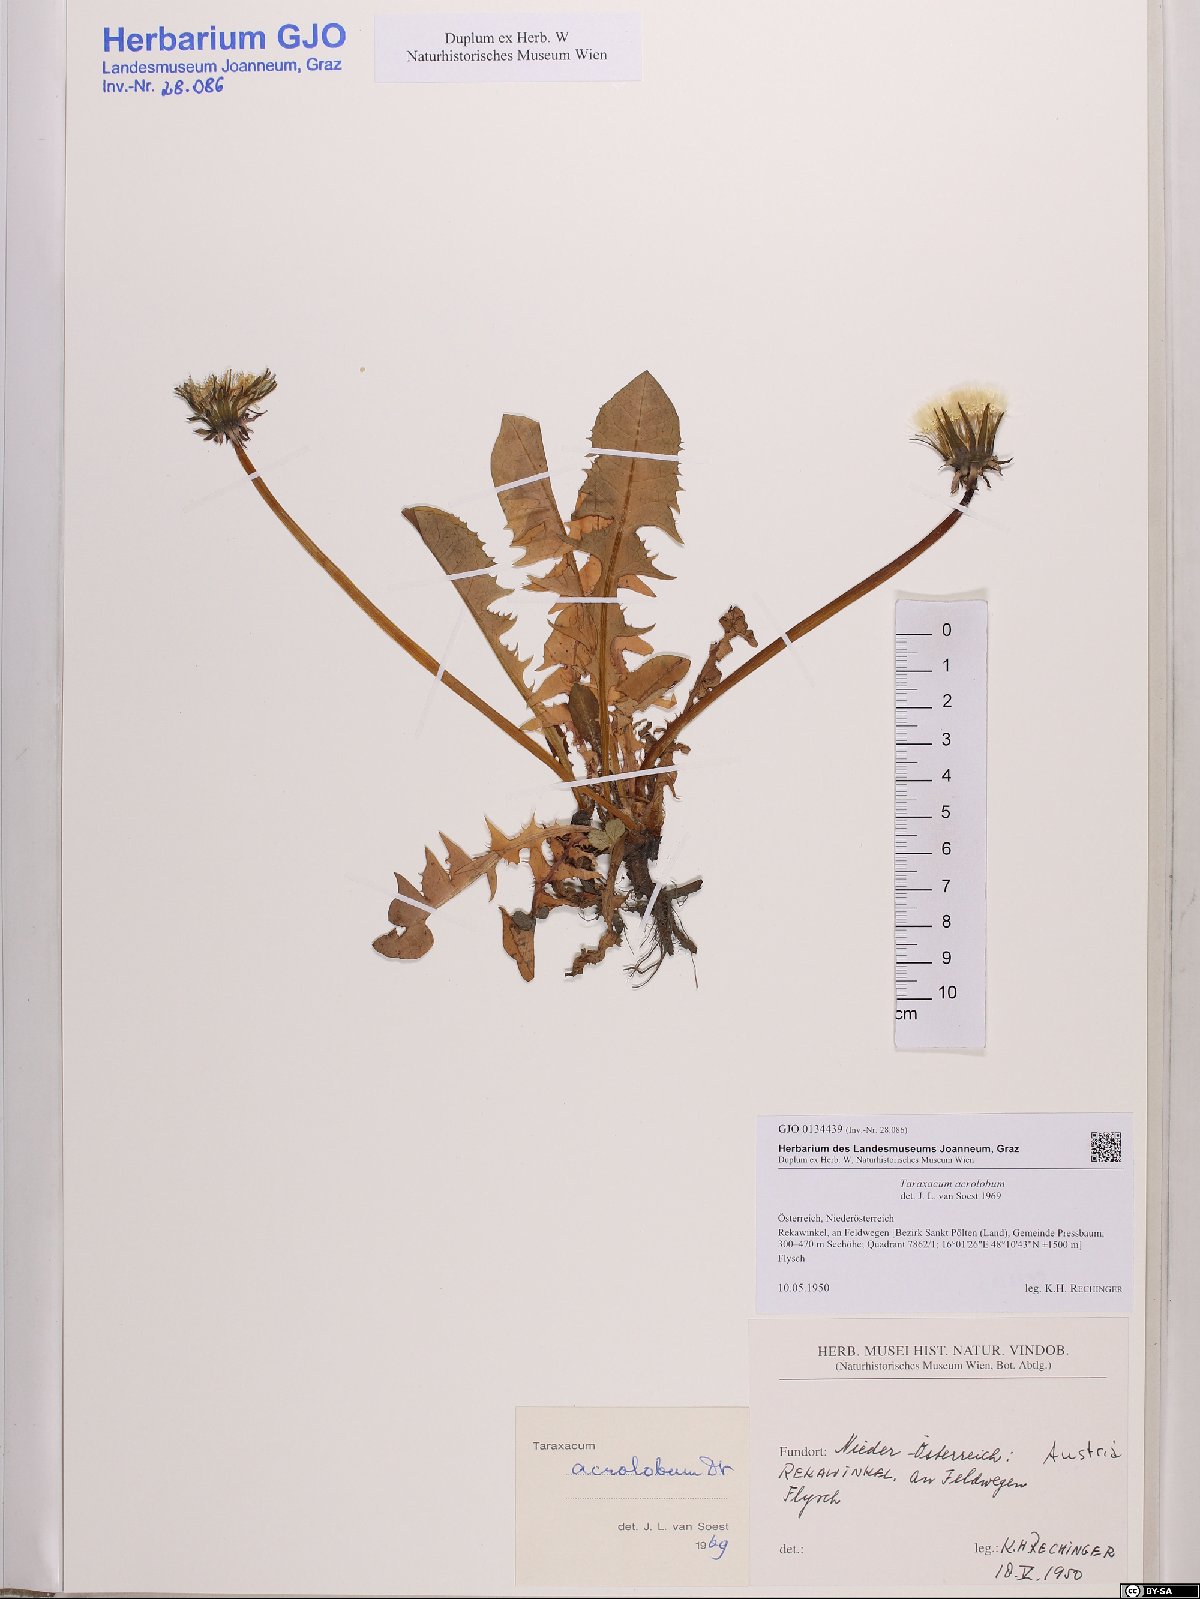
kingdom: Plantae
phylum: Tracheophyta
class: Magnoliopsida
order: Asterales
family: Asteraceae
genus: Taraxacum
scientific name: Taraxacum acrolobum
